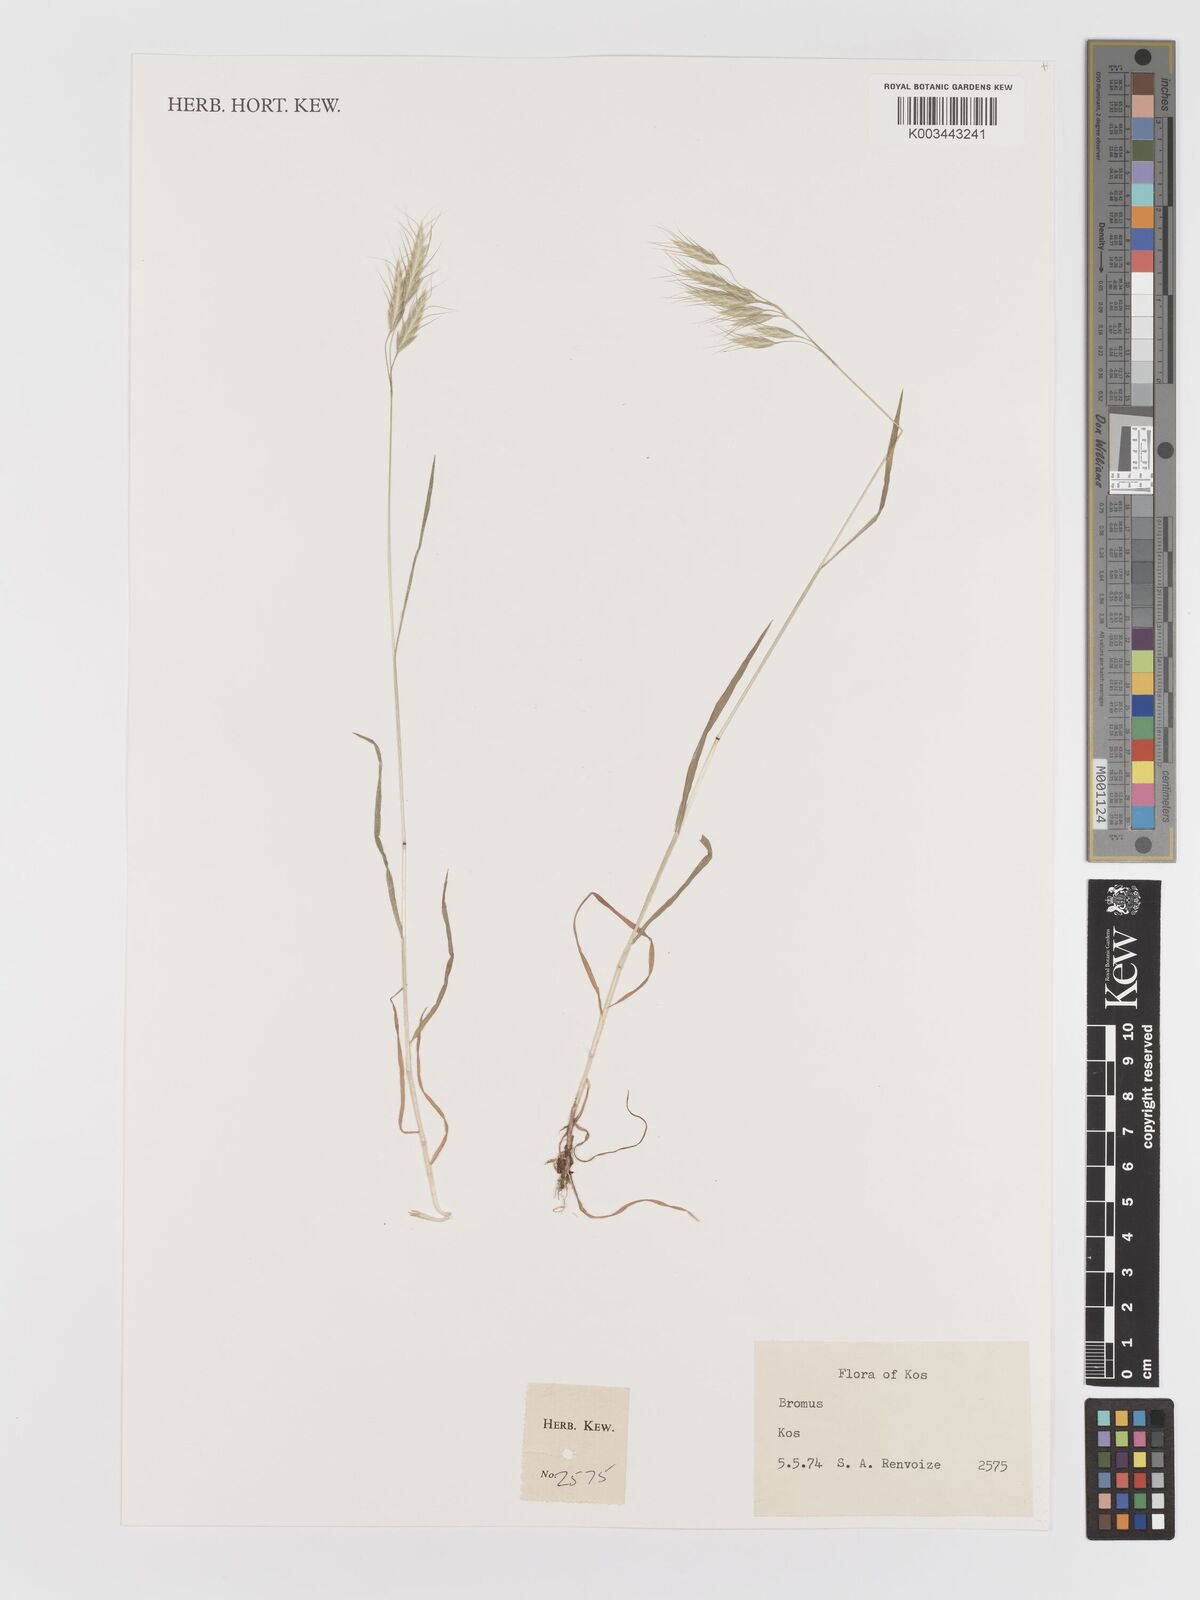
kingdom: Plantae
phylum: Tracheophyta
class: Liliopsida
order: Poales
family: Poaceae
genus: Bromus
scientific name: Bromus
